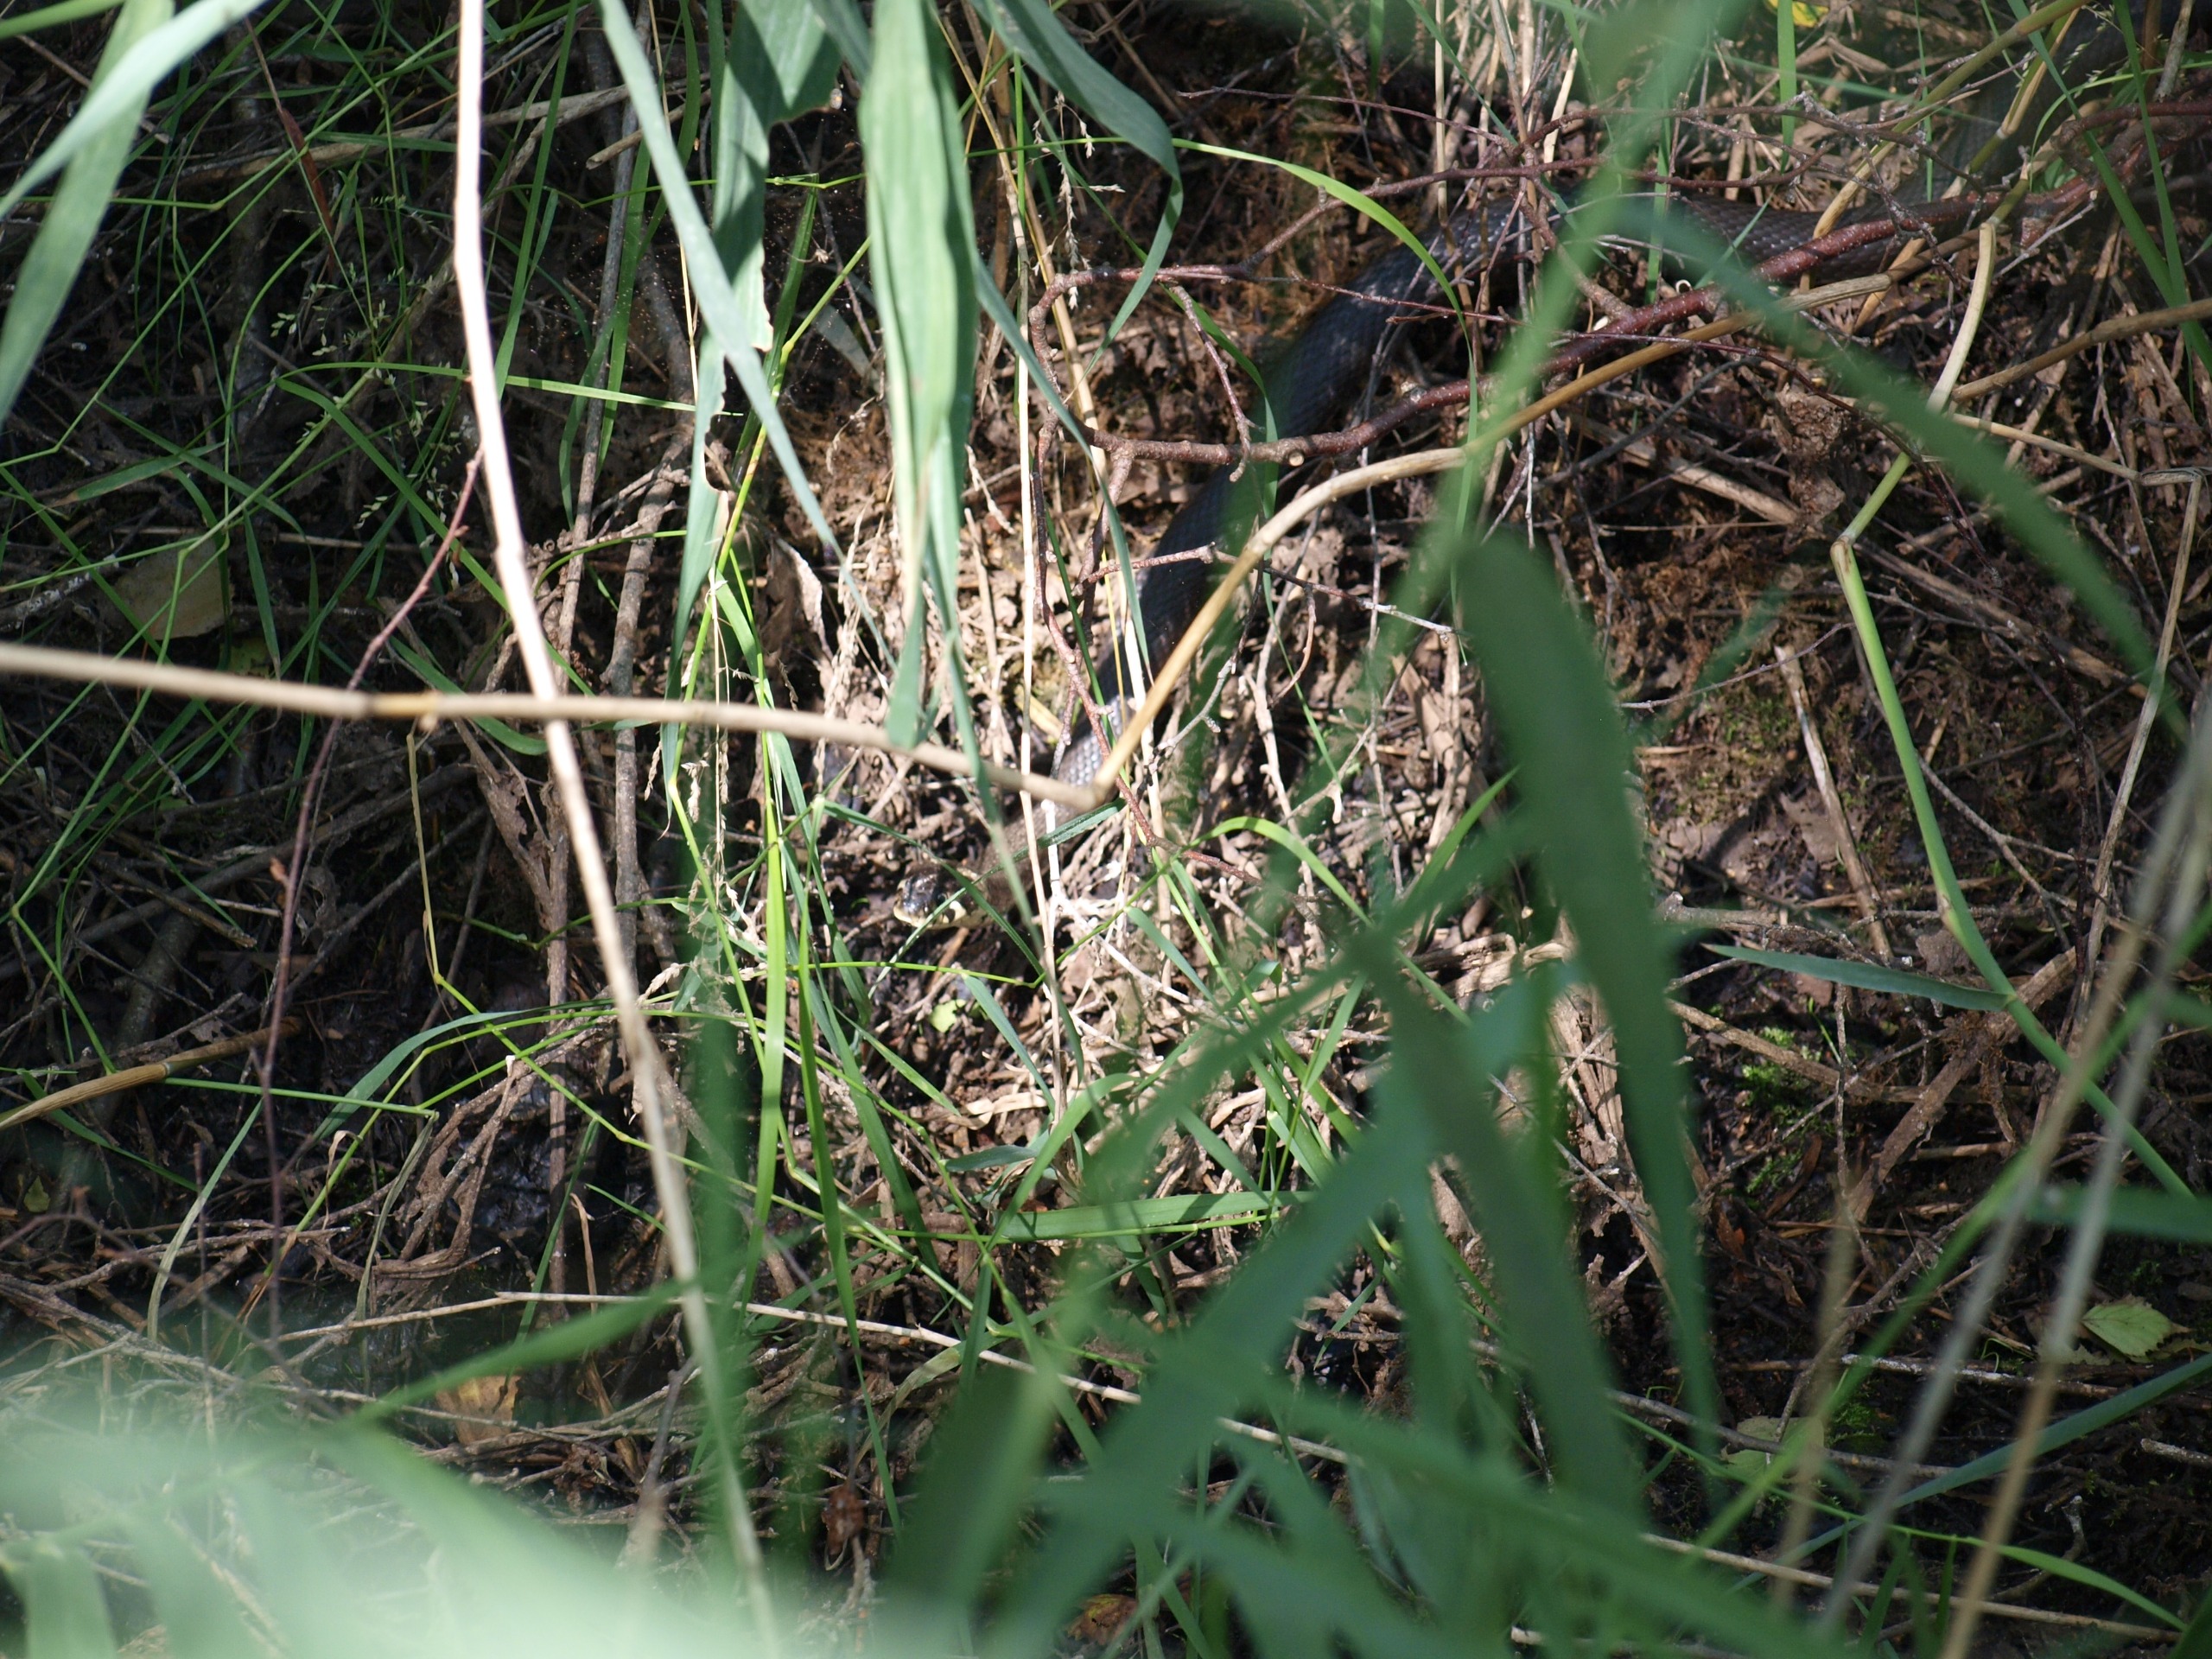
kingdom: Animalia
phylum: Chordata
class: Squamata
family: Colubridae
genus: Natrix
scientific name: Natrix natrix
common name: Snog
